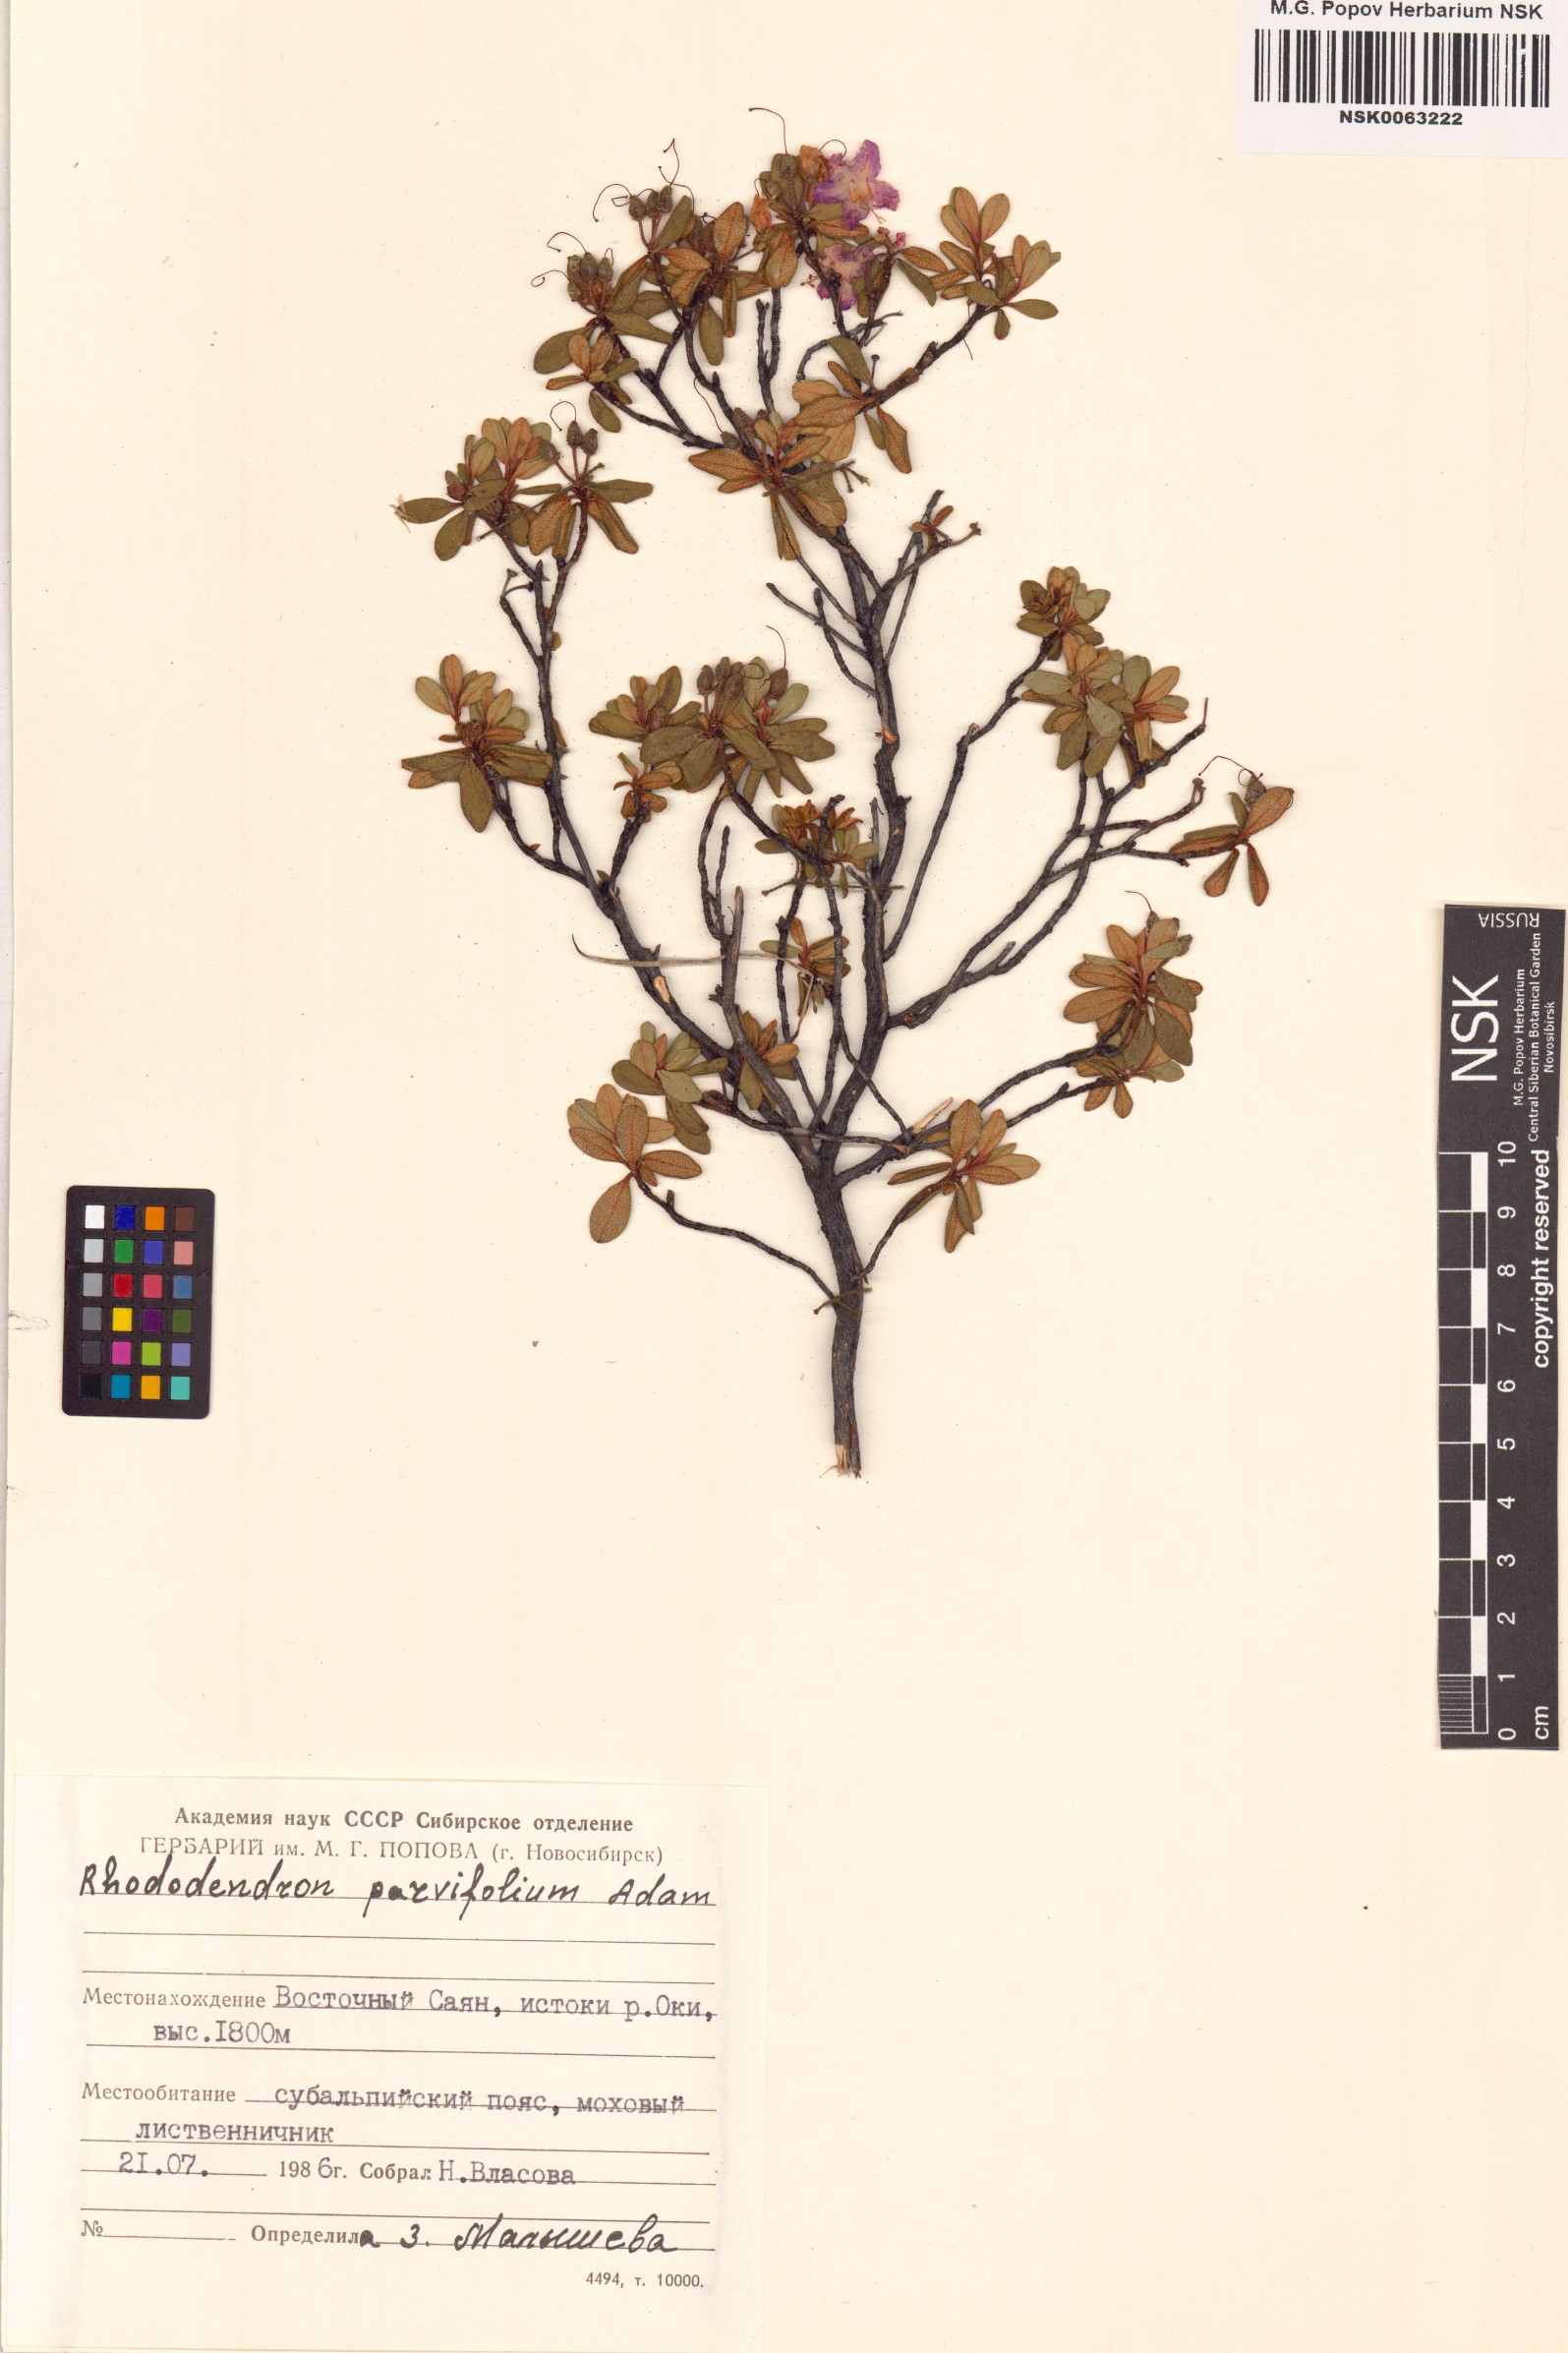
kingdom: Plantae
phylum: Tracheophyta
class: Magnoliopsida
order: Ericales
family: Ericaceae
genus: Rhododendron
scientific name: Rhododendron parvifolium
